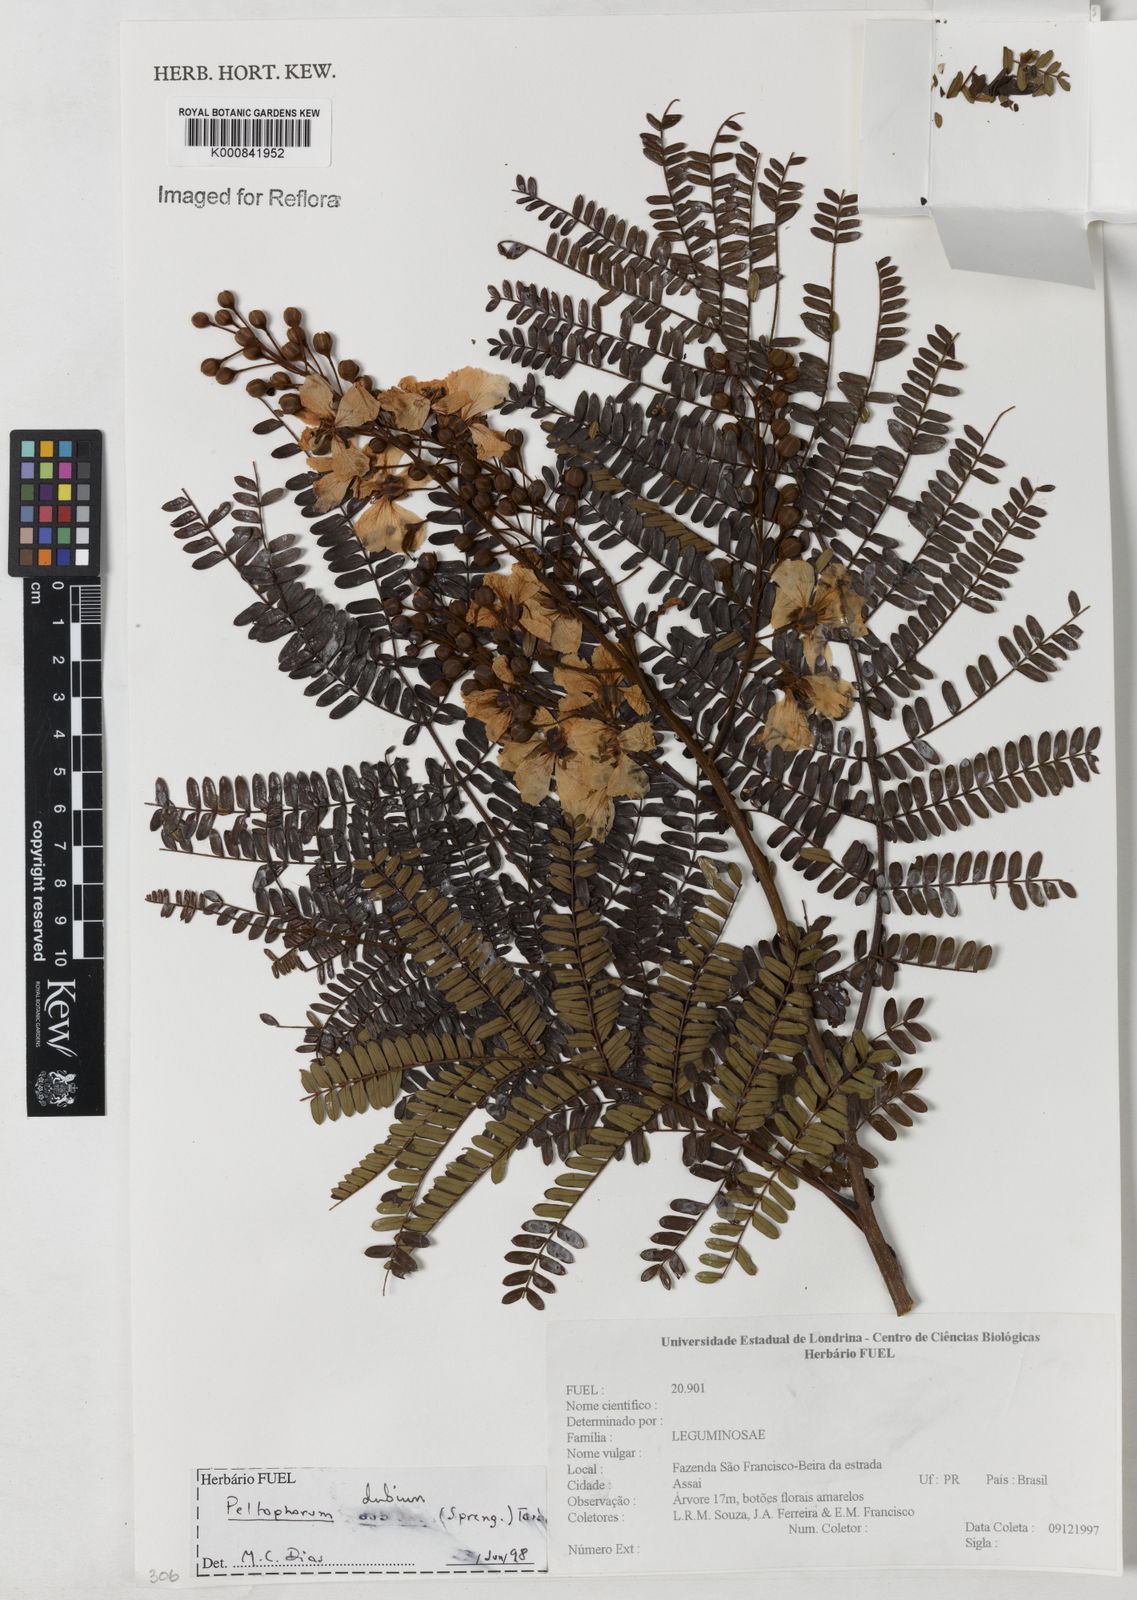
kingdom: Plantae
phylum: Tracheophyta
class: Magnoliopsida
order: Fabales
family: Fabaceae
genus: Peltophorum
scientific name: Peltophorum dubium
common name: Horsebush
